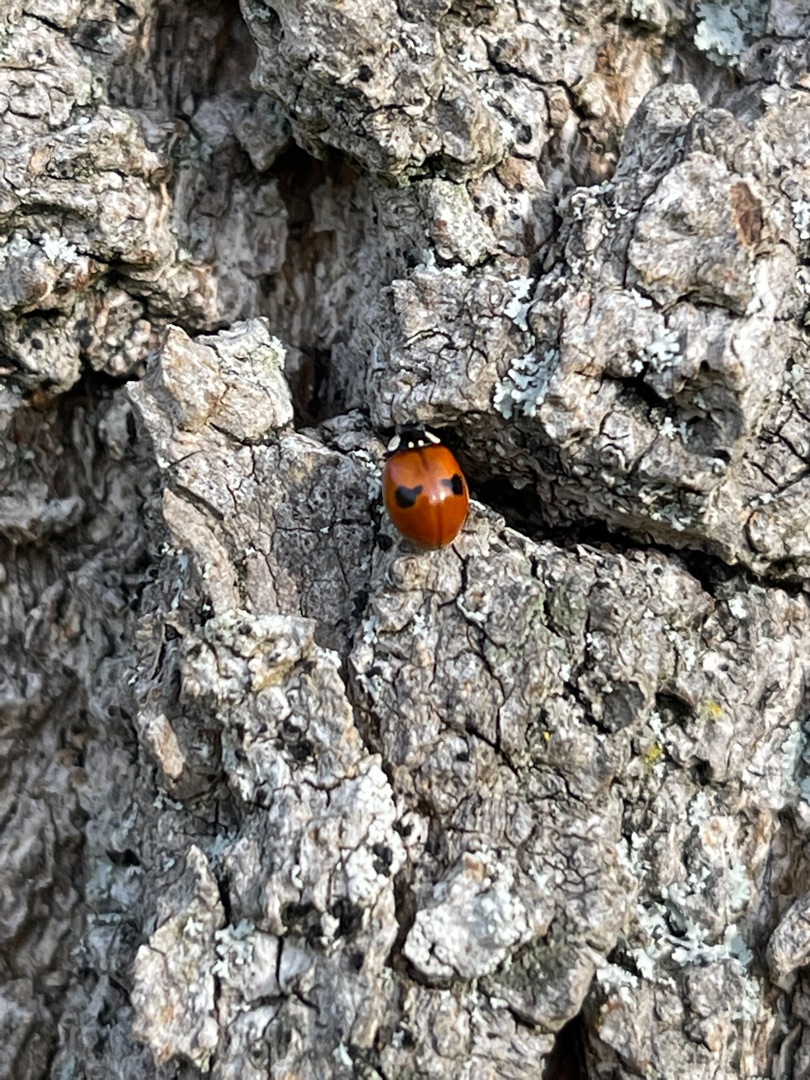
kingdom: Animalia
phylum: Arthropoda
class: Insecta
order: Coleoptera
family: Coccinellidae
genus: Adalia
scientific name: Adalia bipunctata
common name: Toplettet mariehøne
